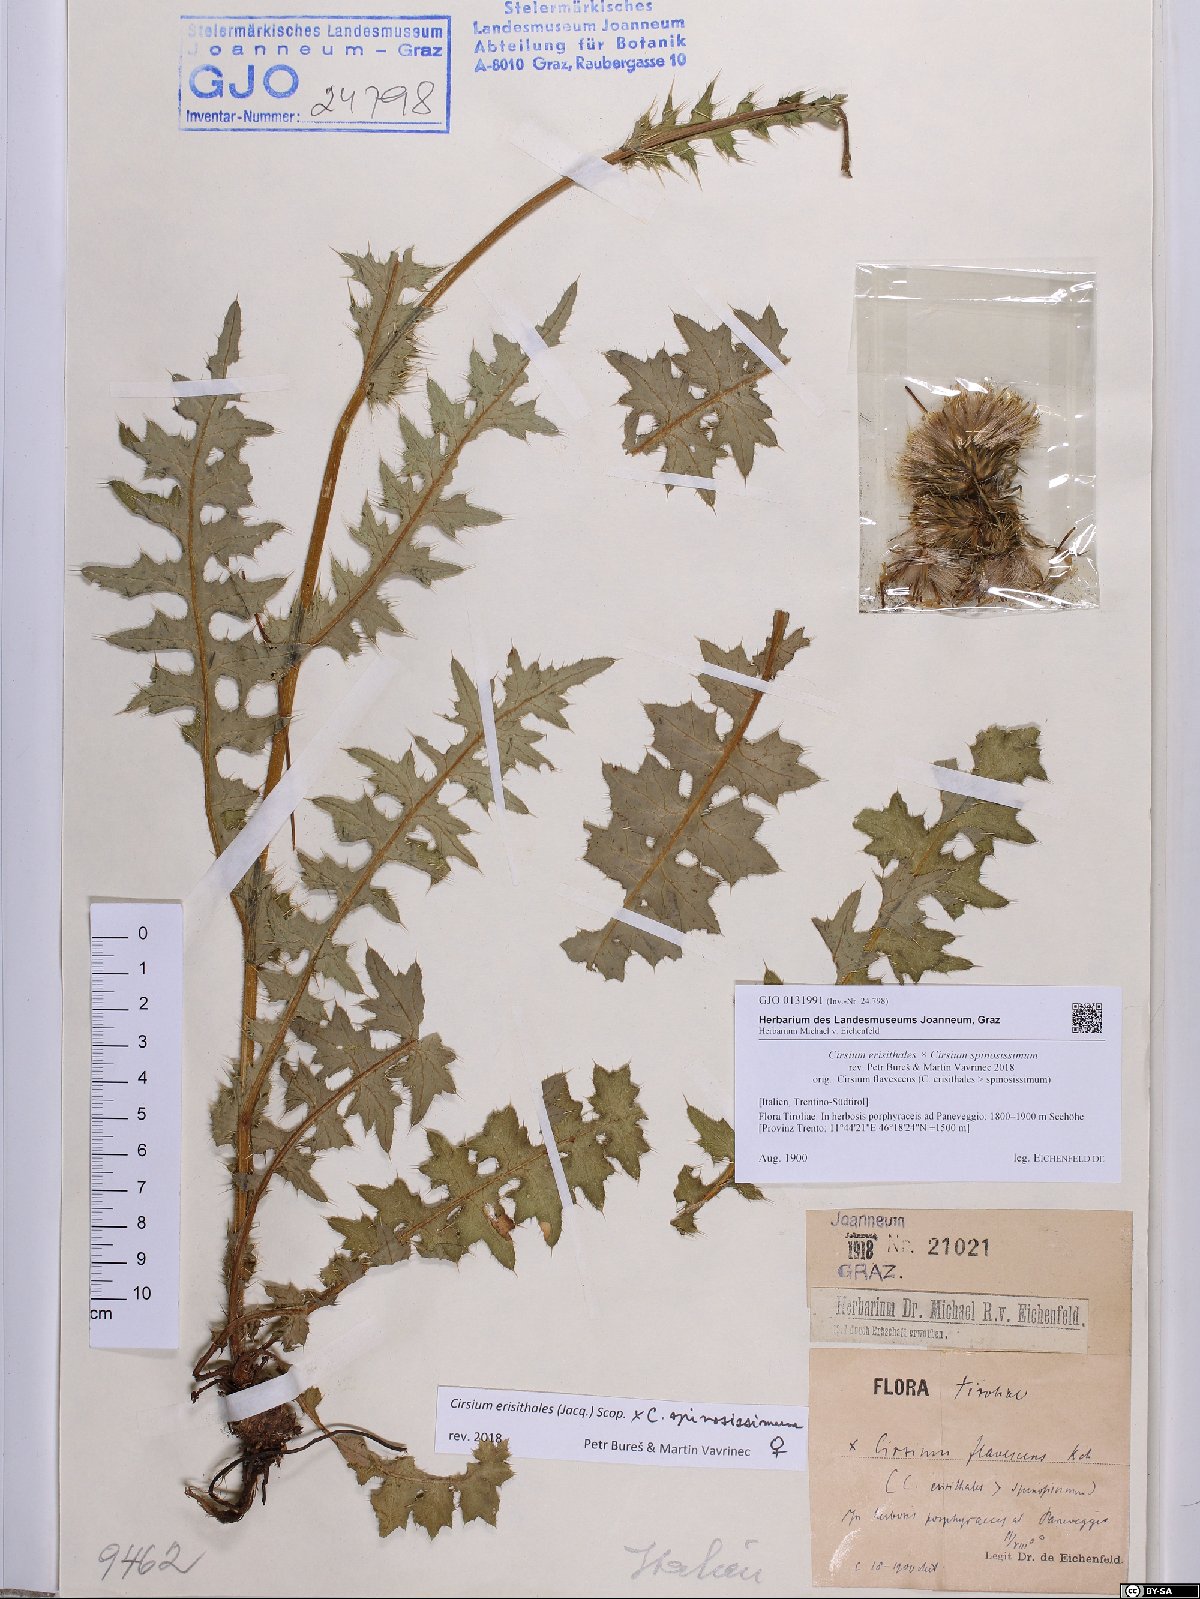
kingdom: Plantae
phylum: Tracheophyta
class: Magnoliopsida
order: Asterales
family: Asteraceae
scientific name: Asteraceae
